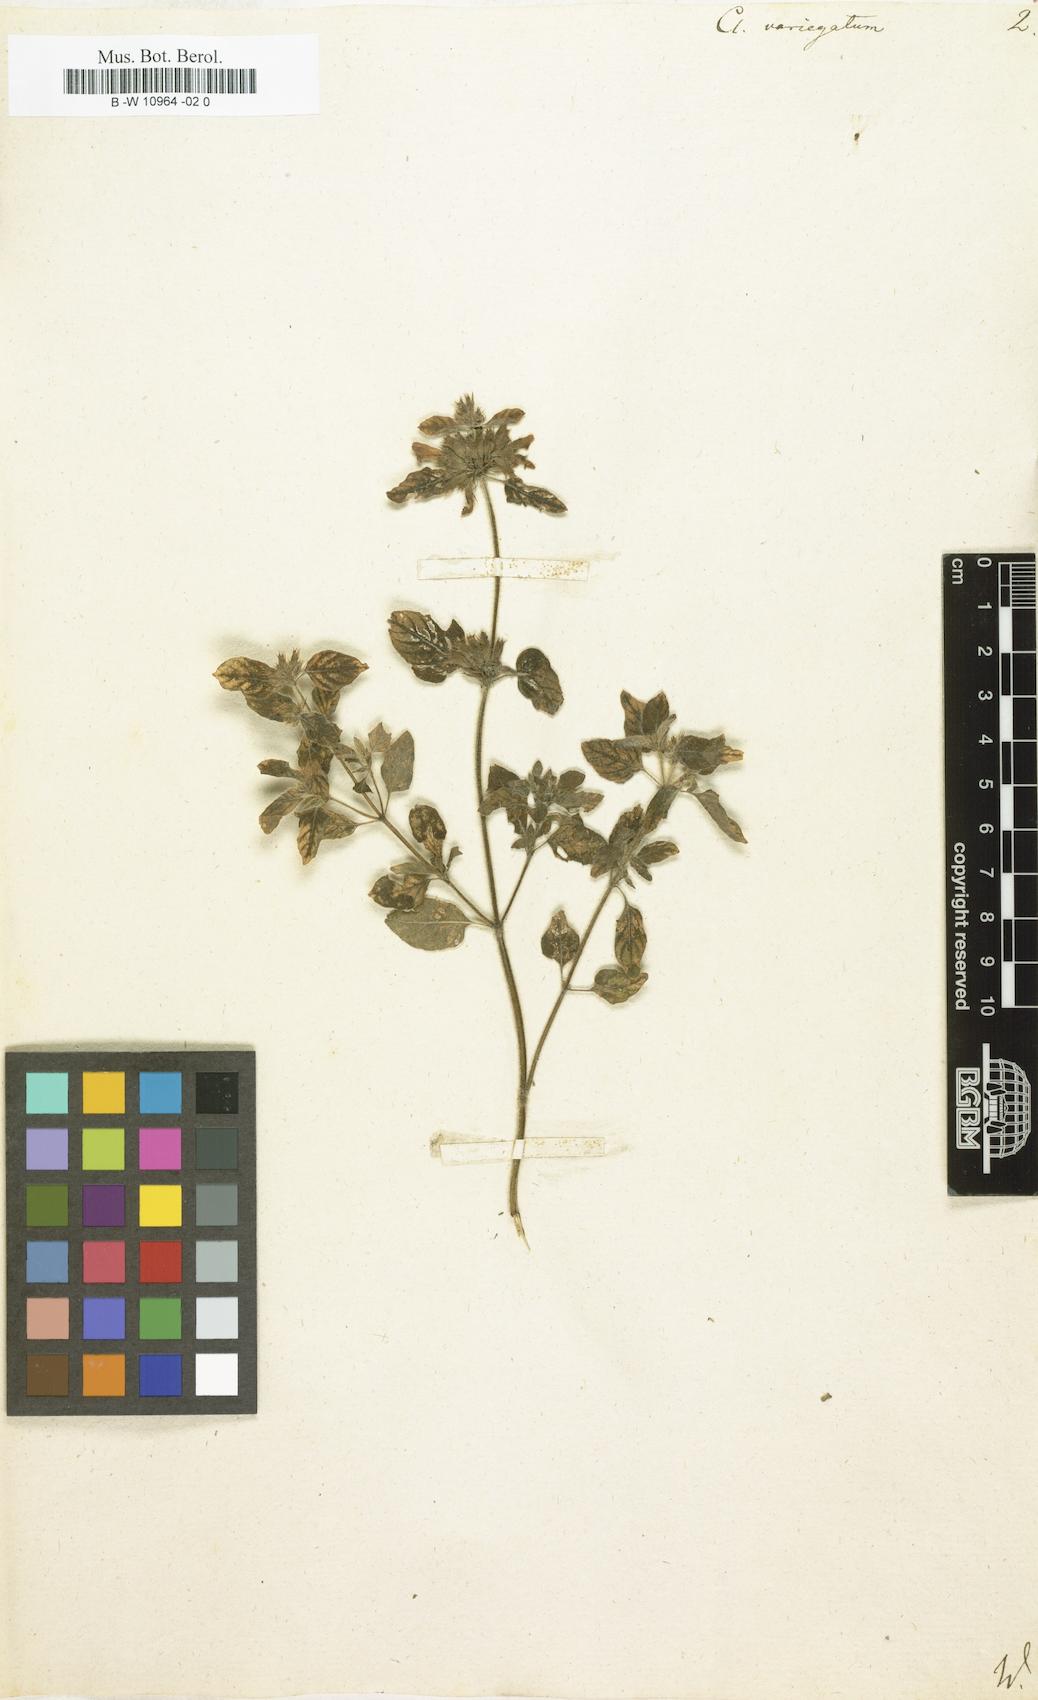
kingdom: Plantae
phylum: Tracheophyta
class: Magnoliopsida
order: Lamiales
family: Lamiaceae
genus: Clinopodium
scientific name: Clinopodium vulgare
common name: Wild basil
